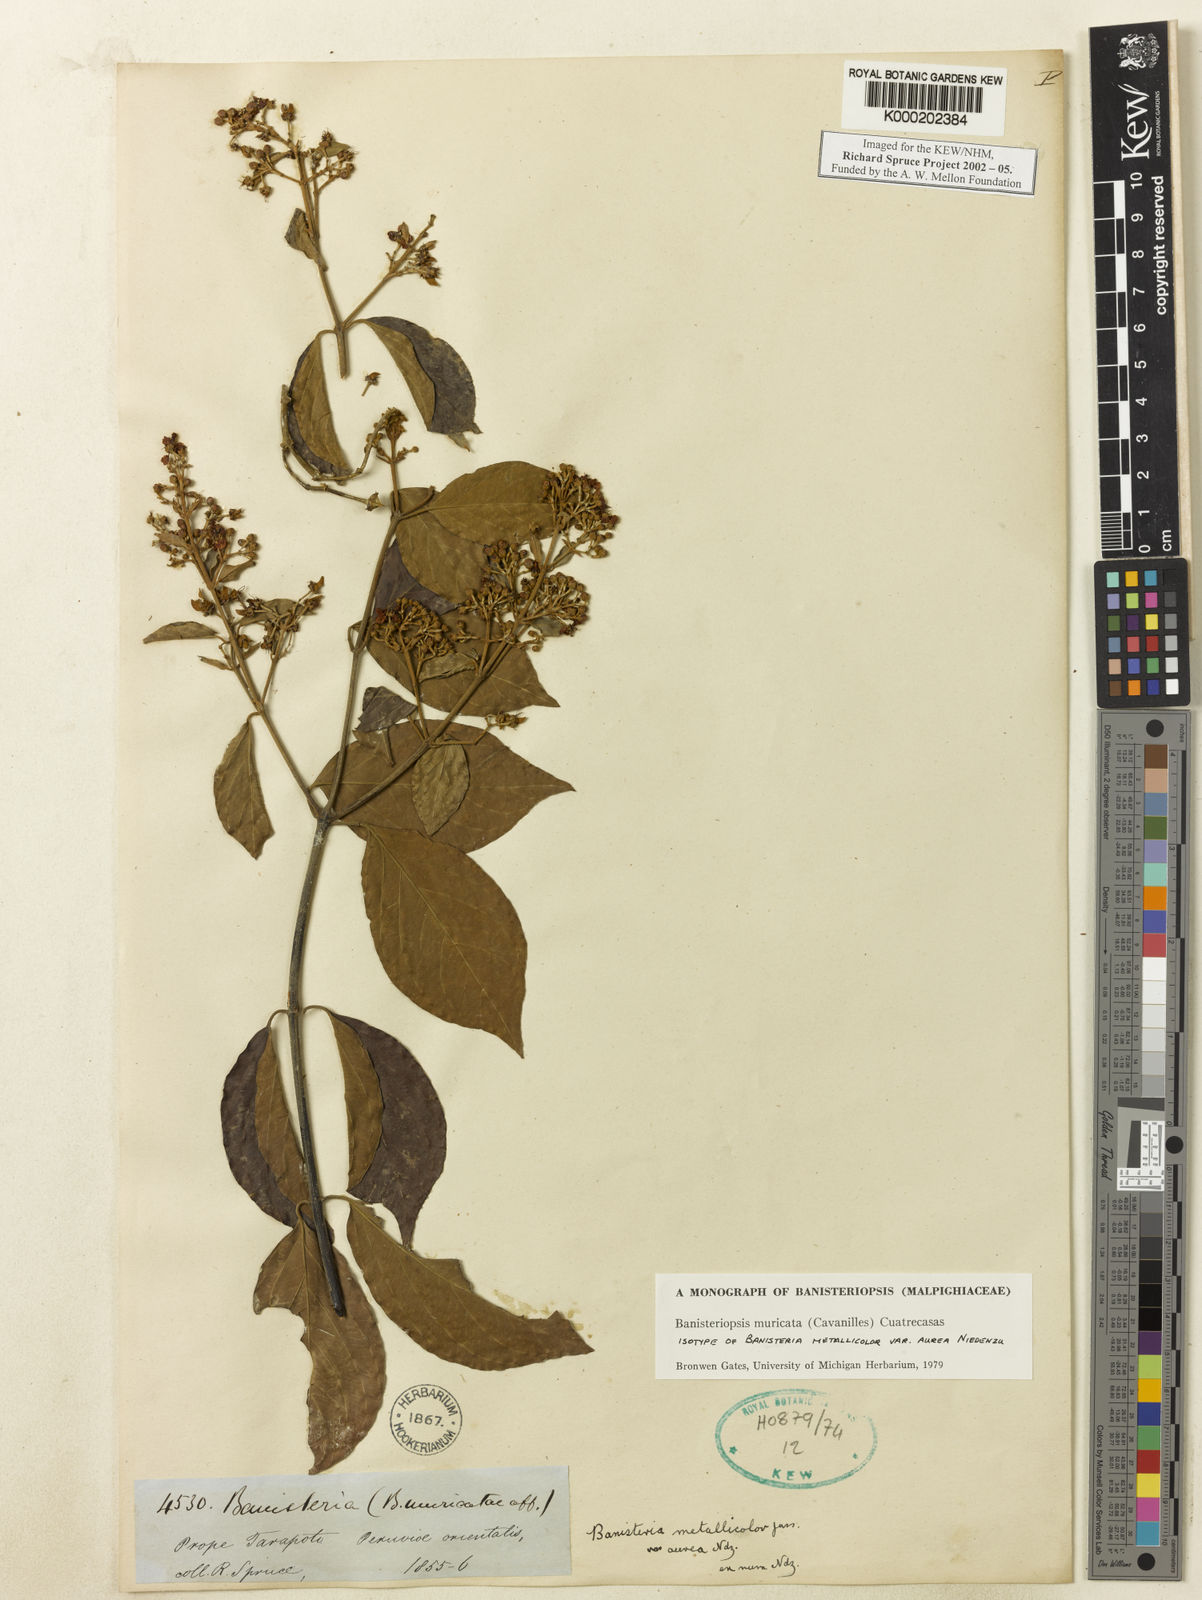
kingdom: Plantae
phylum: Tracheophyta
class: Magnoliopsida
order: Malpighiales
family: Malpighiaceae
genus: Banisteriopsis
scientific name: Banisteriopsis muricata
